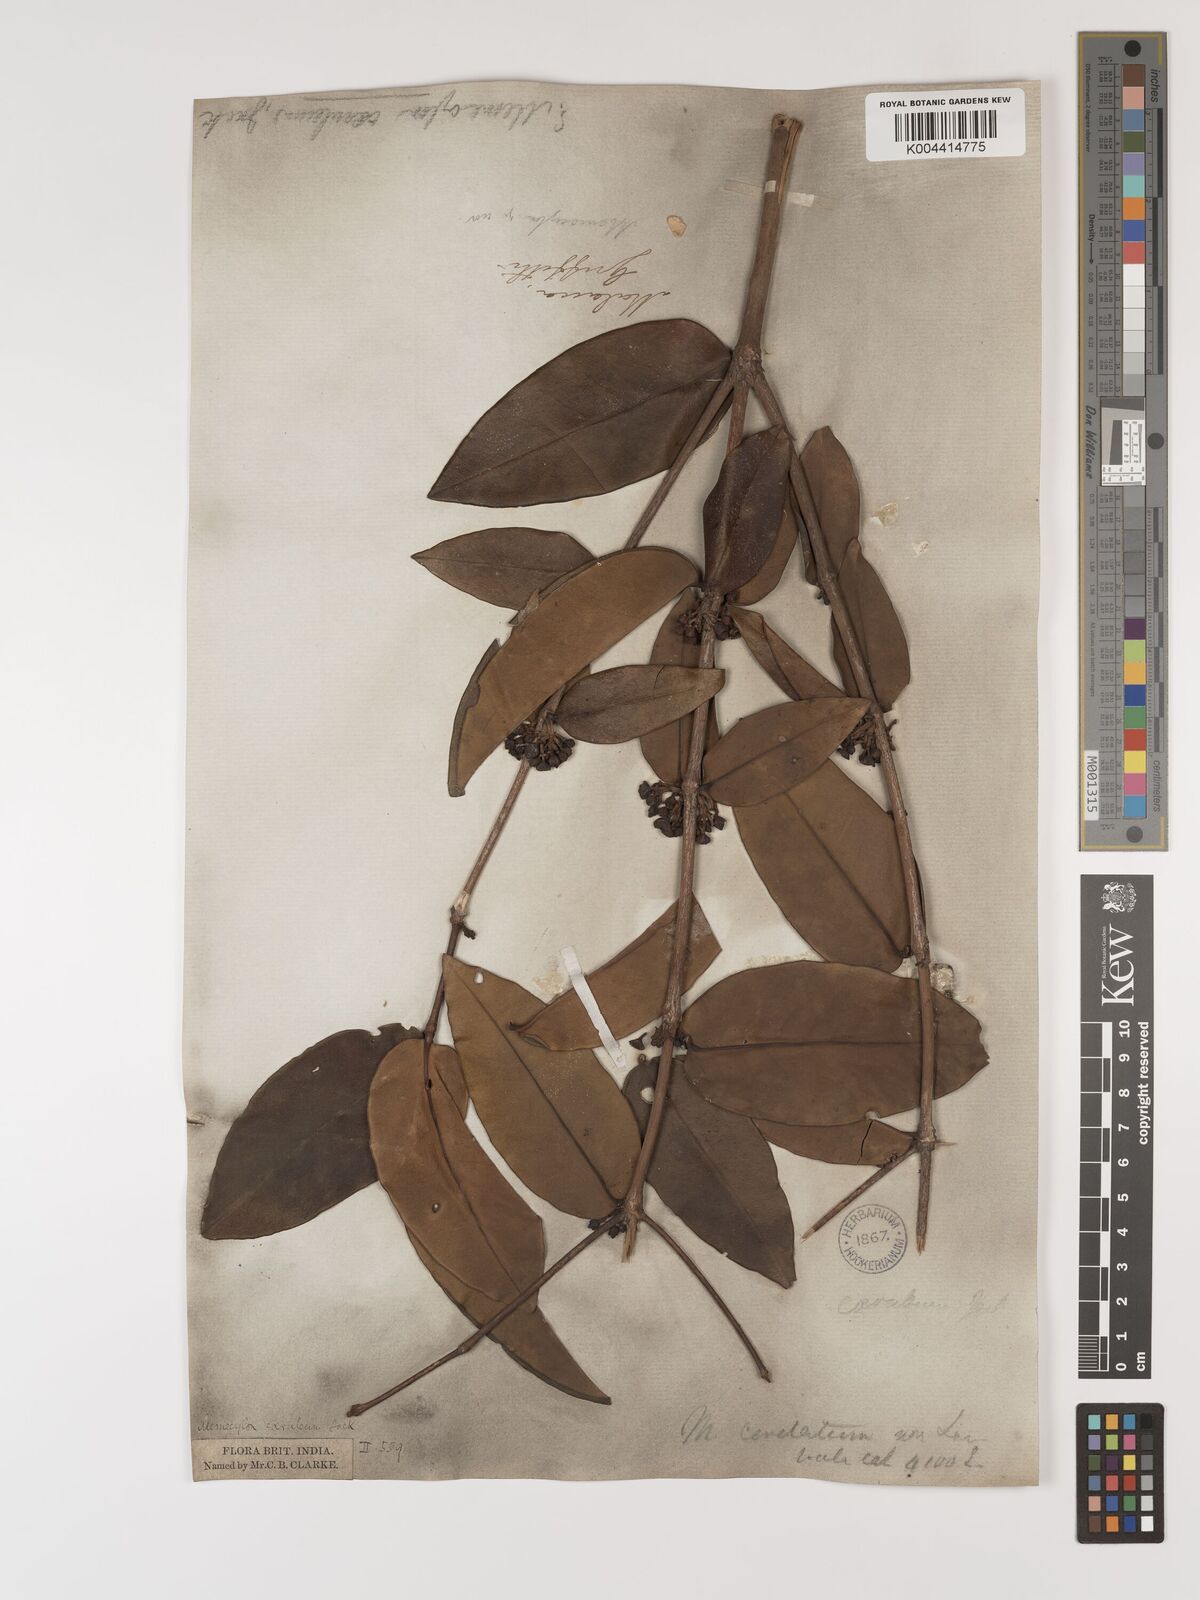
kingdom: Plantae
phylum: Tracheophyta
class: Magnoliopsida
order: Myrtales
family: Melastomataceae
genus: Memecylon
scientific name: Memecylon
